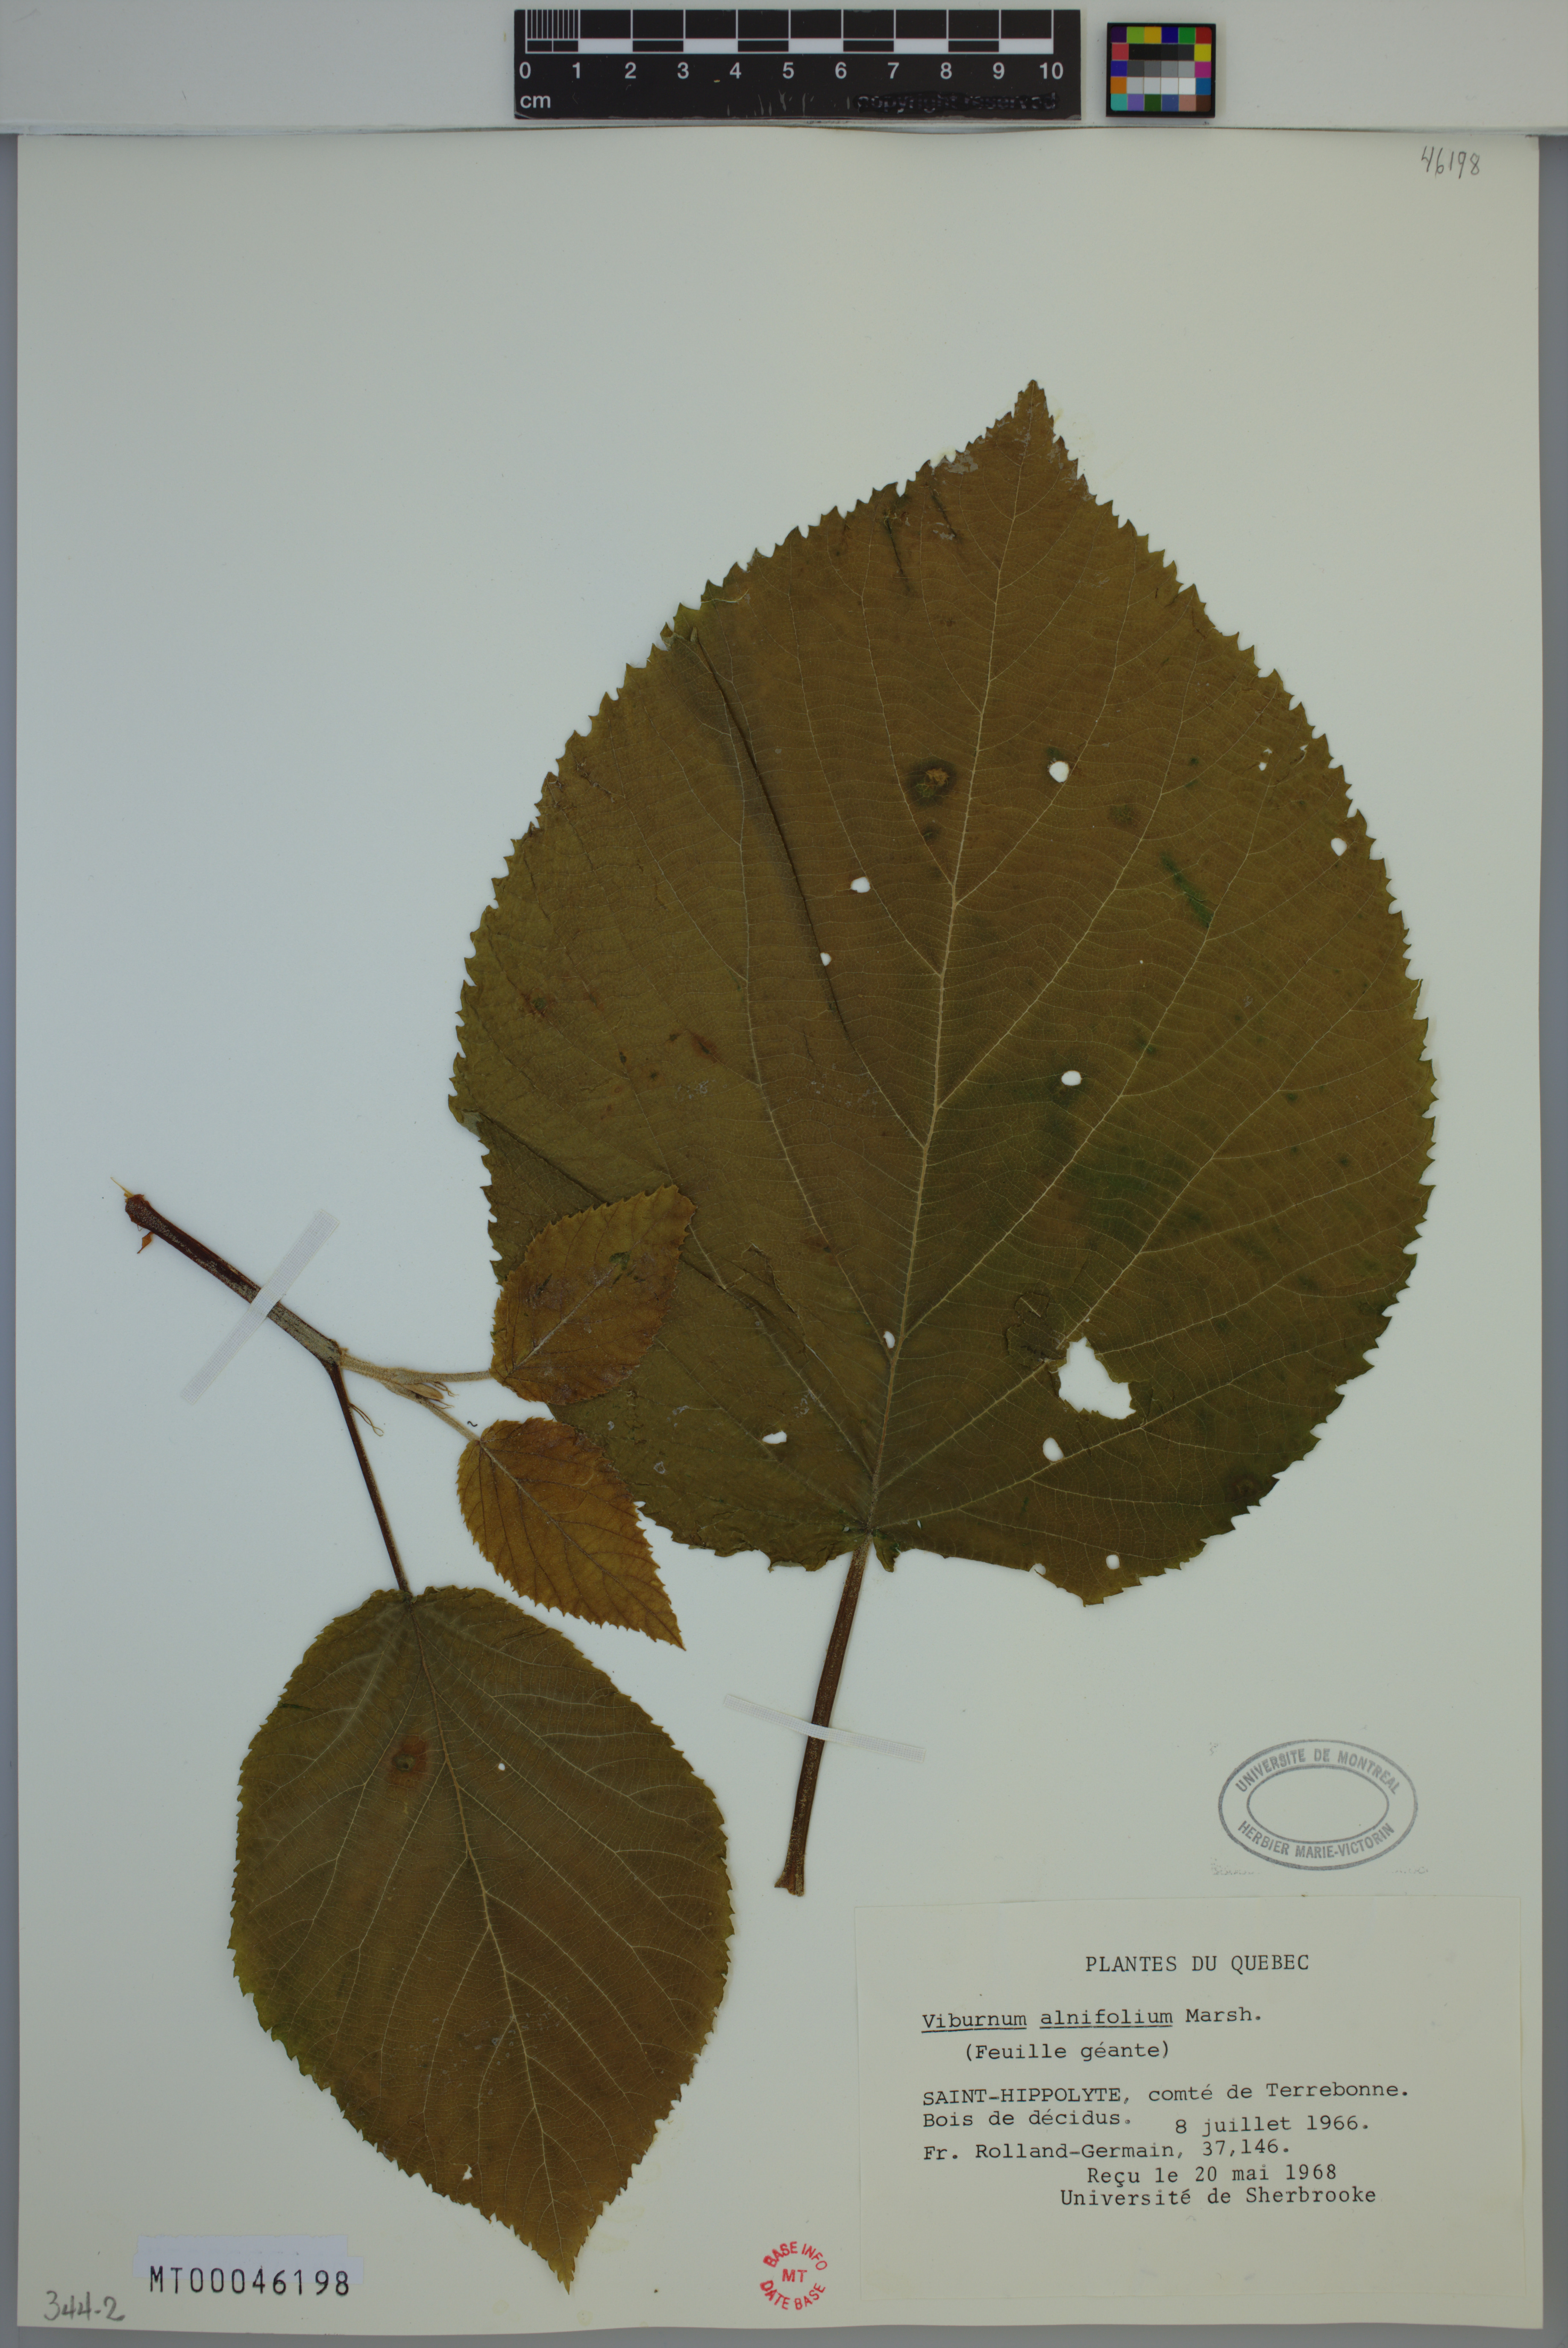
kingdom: Plantae
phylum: Tracheophyta
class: Magnoliopsida
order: Dipsacales
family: Viburnaceae
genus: Viburnum
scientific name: Viburnum lantanoides
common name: Hobblebush
